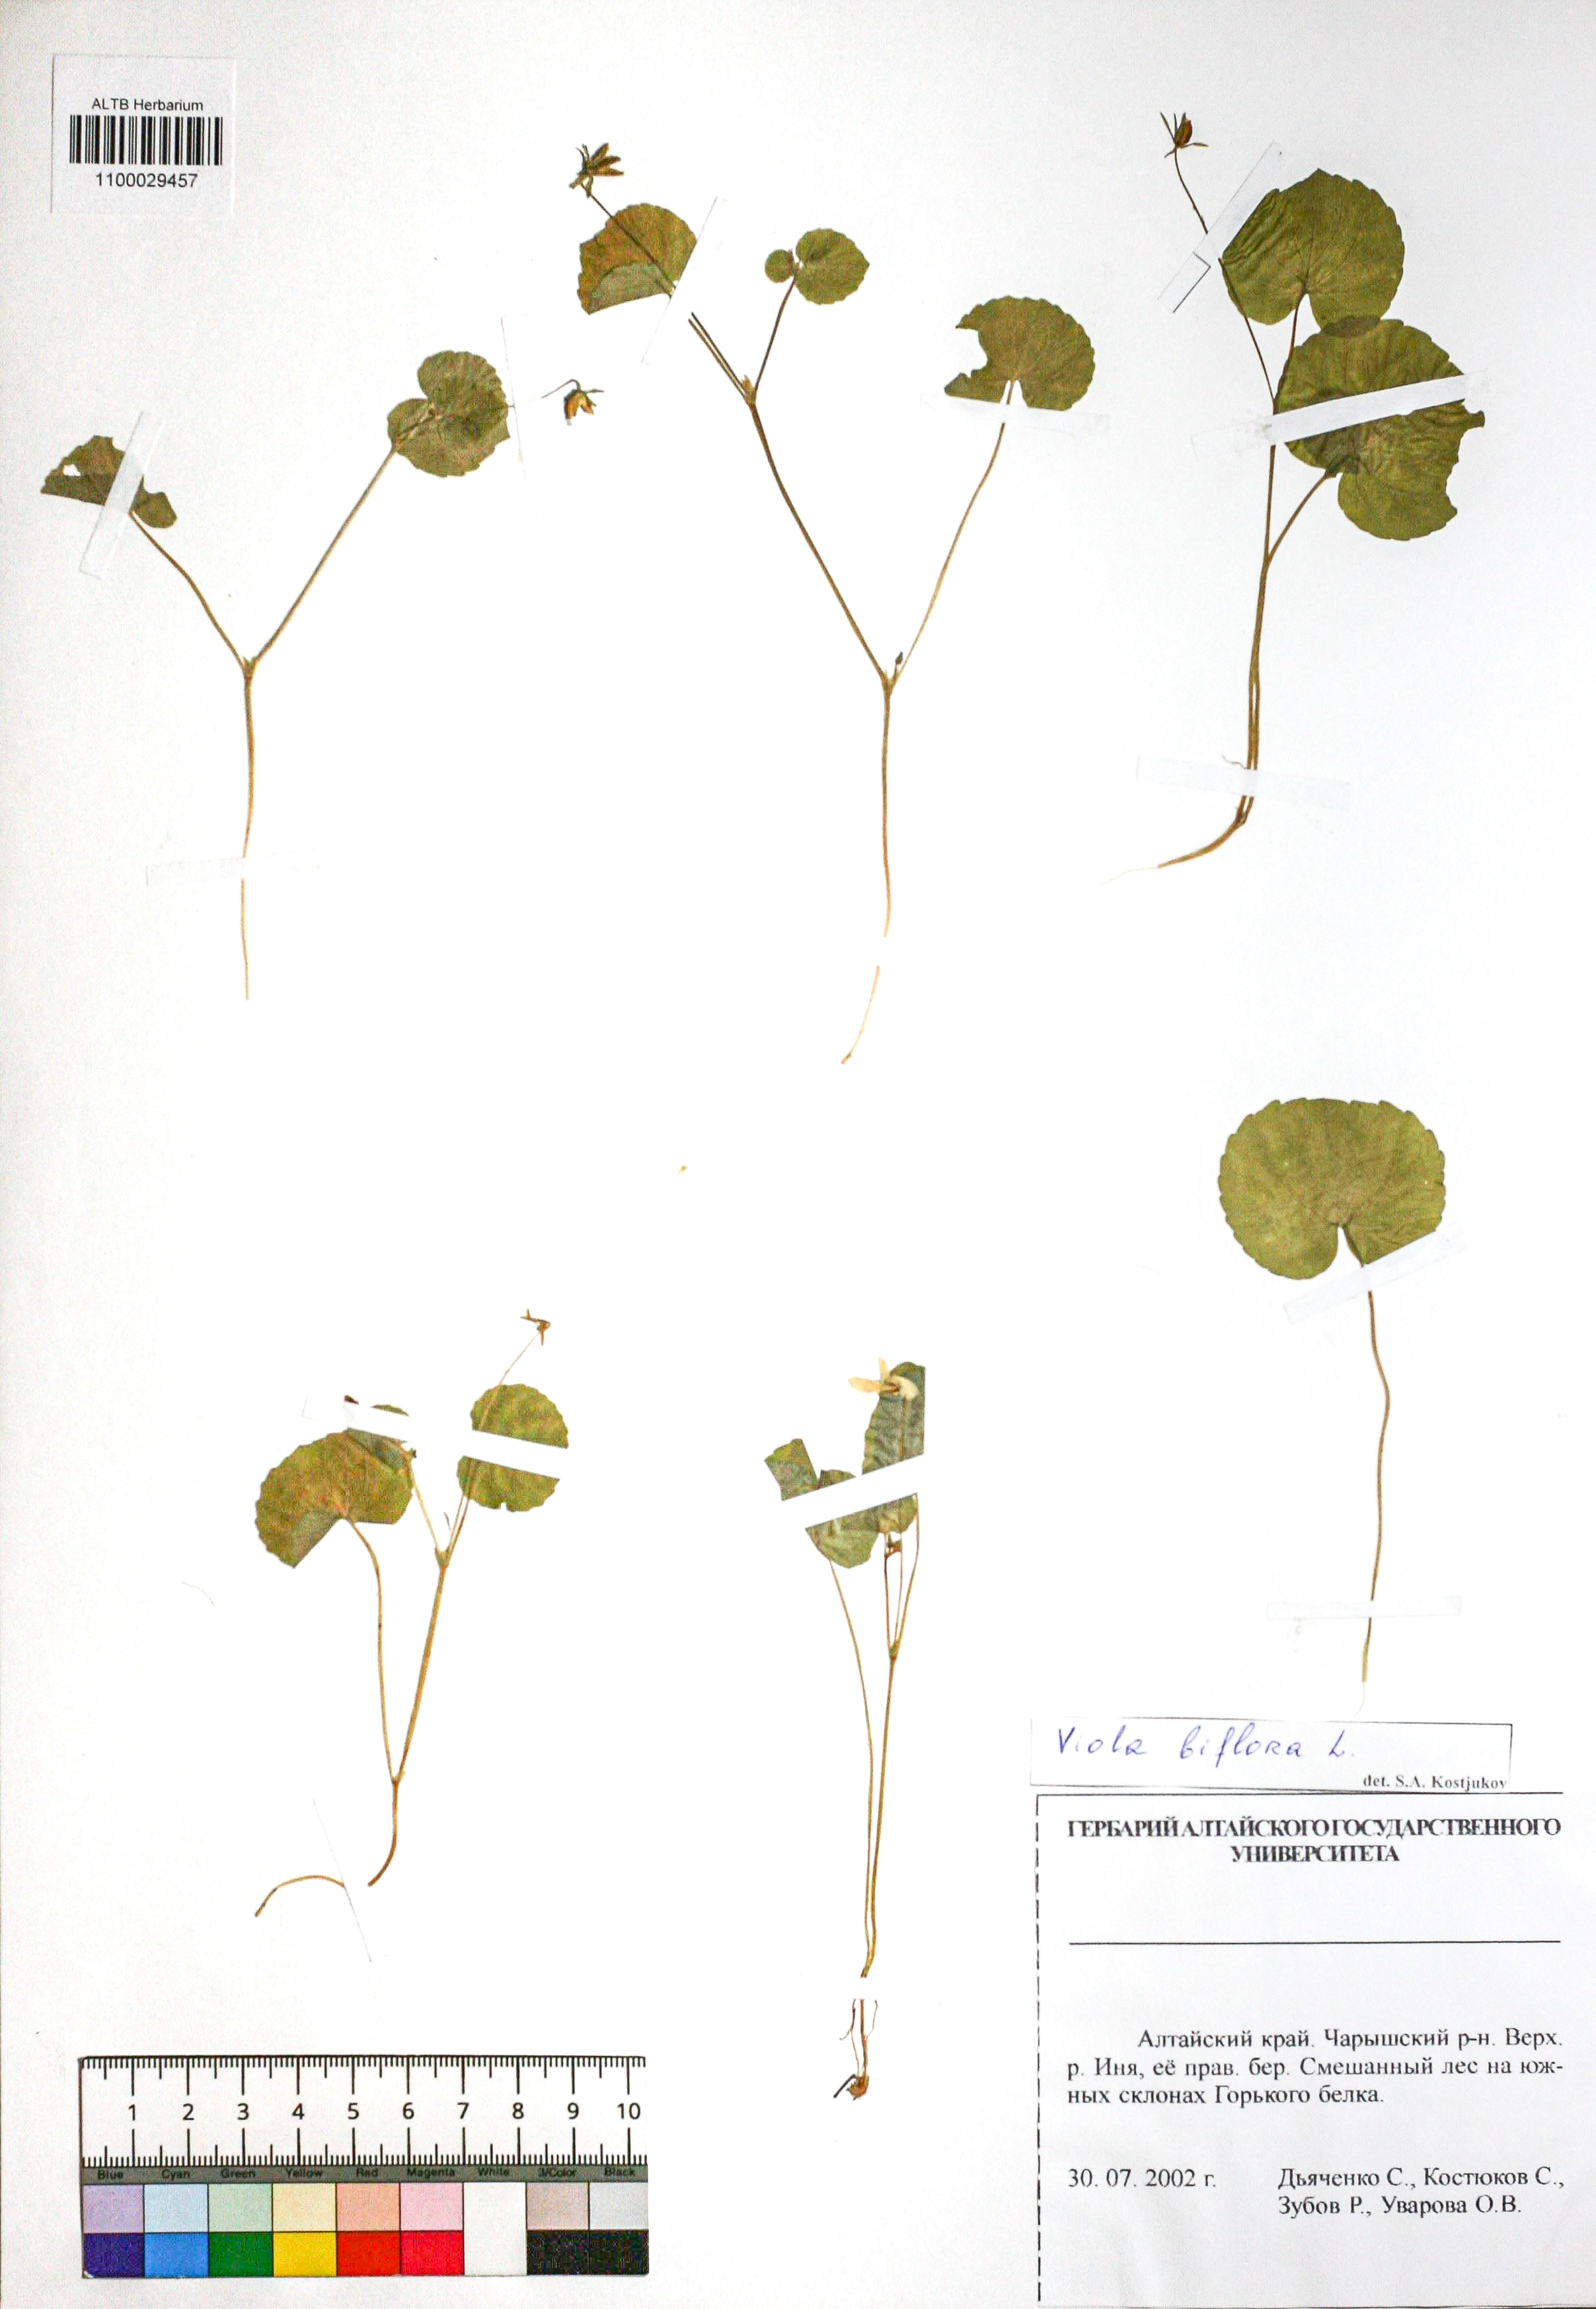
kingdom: Plantae
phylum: Tracheophyta
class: Magnoliopsida
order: Malpighiales
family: Violaceae
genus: Viola
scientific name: Viola biflora
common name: Alpine yellow violet
